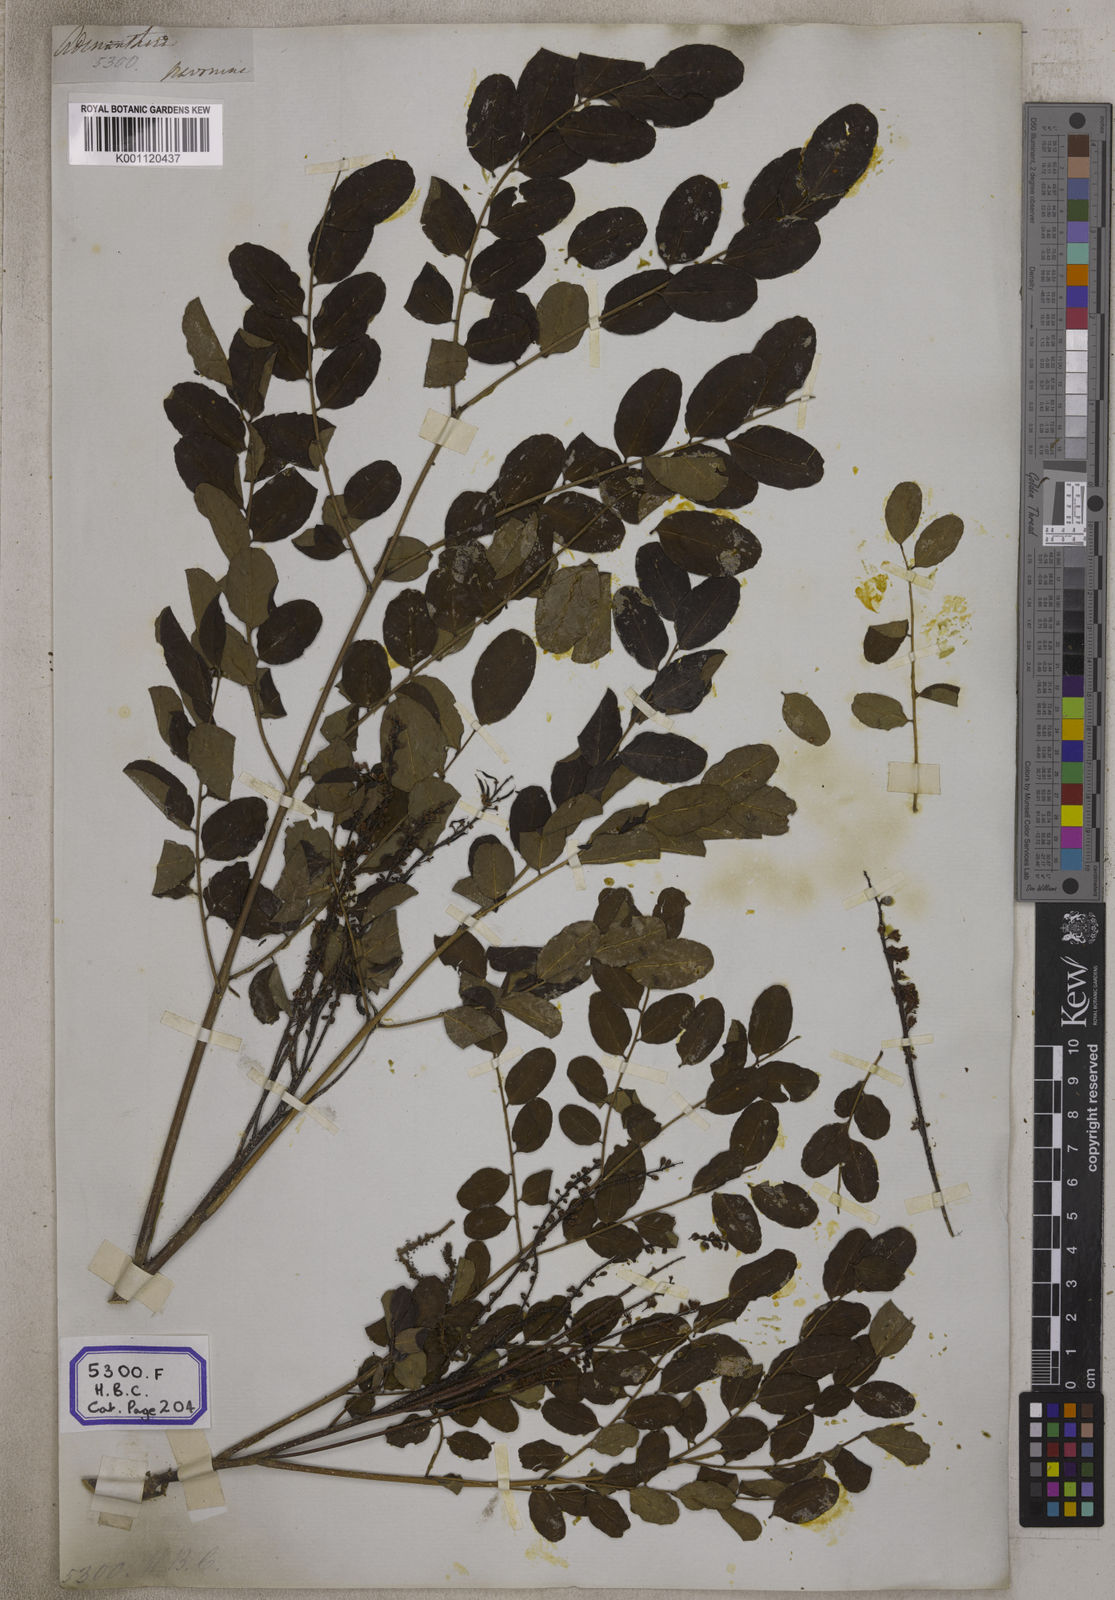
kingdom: Plantae
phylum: Tracheophyta
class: Magnoliopsida
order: Fabales
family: Fabaceae
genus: Adenanthera
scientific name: Adenanthera pavonina
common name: Red beadtree
